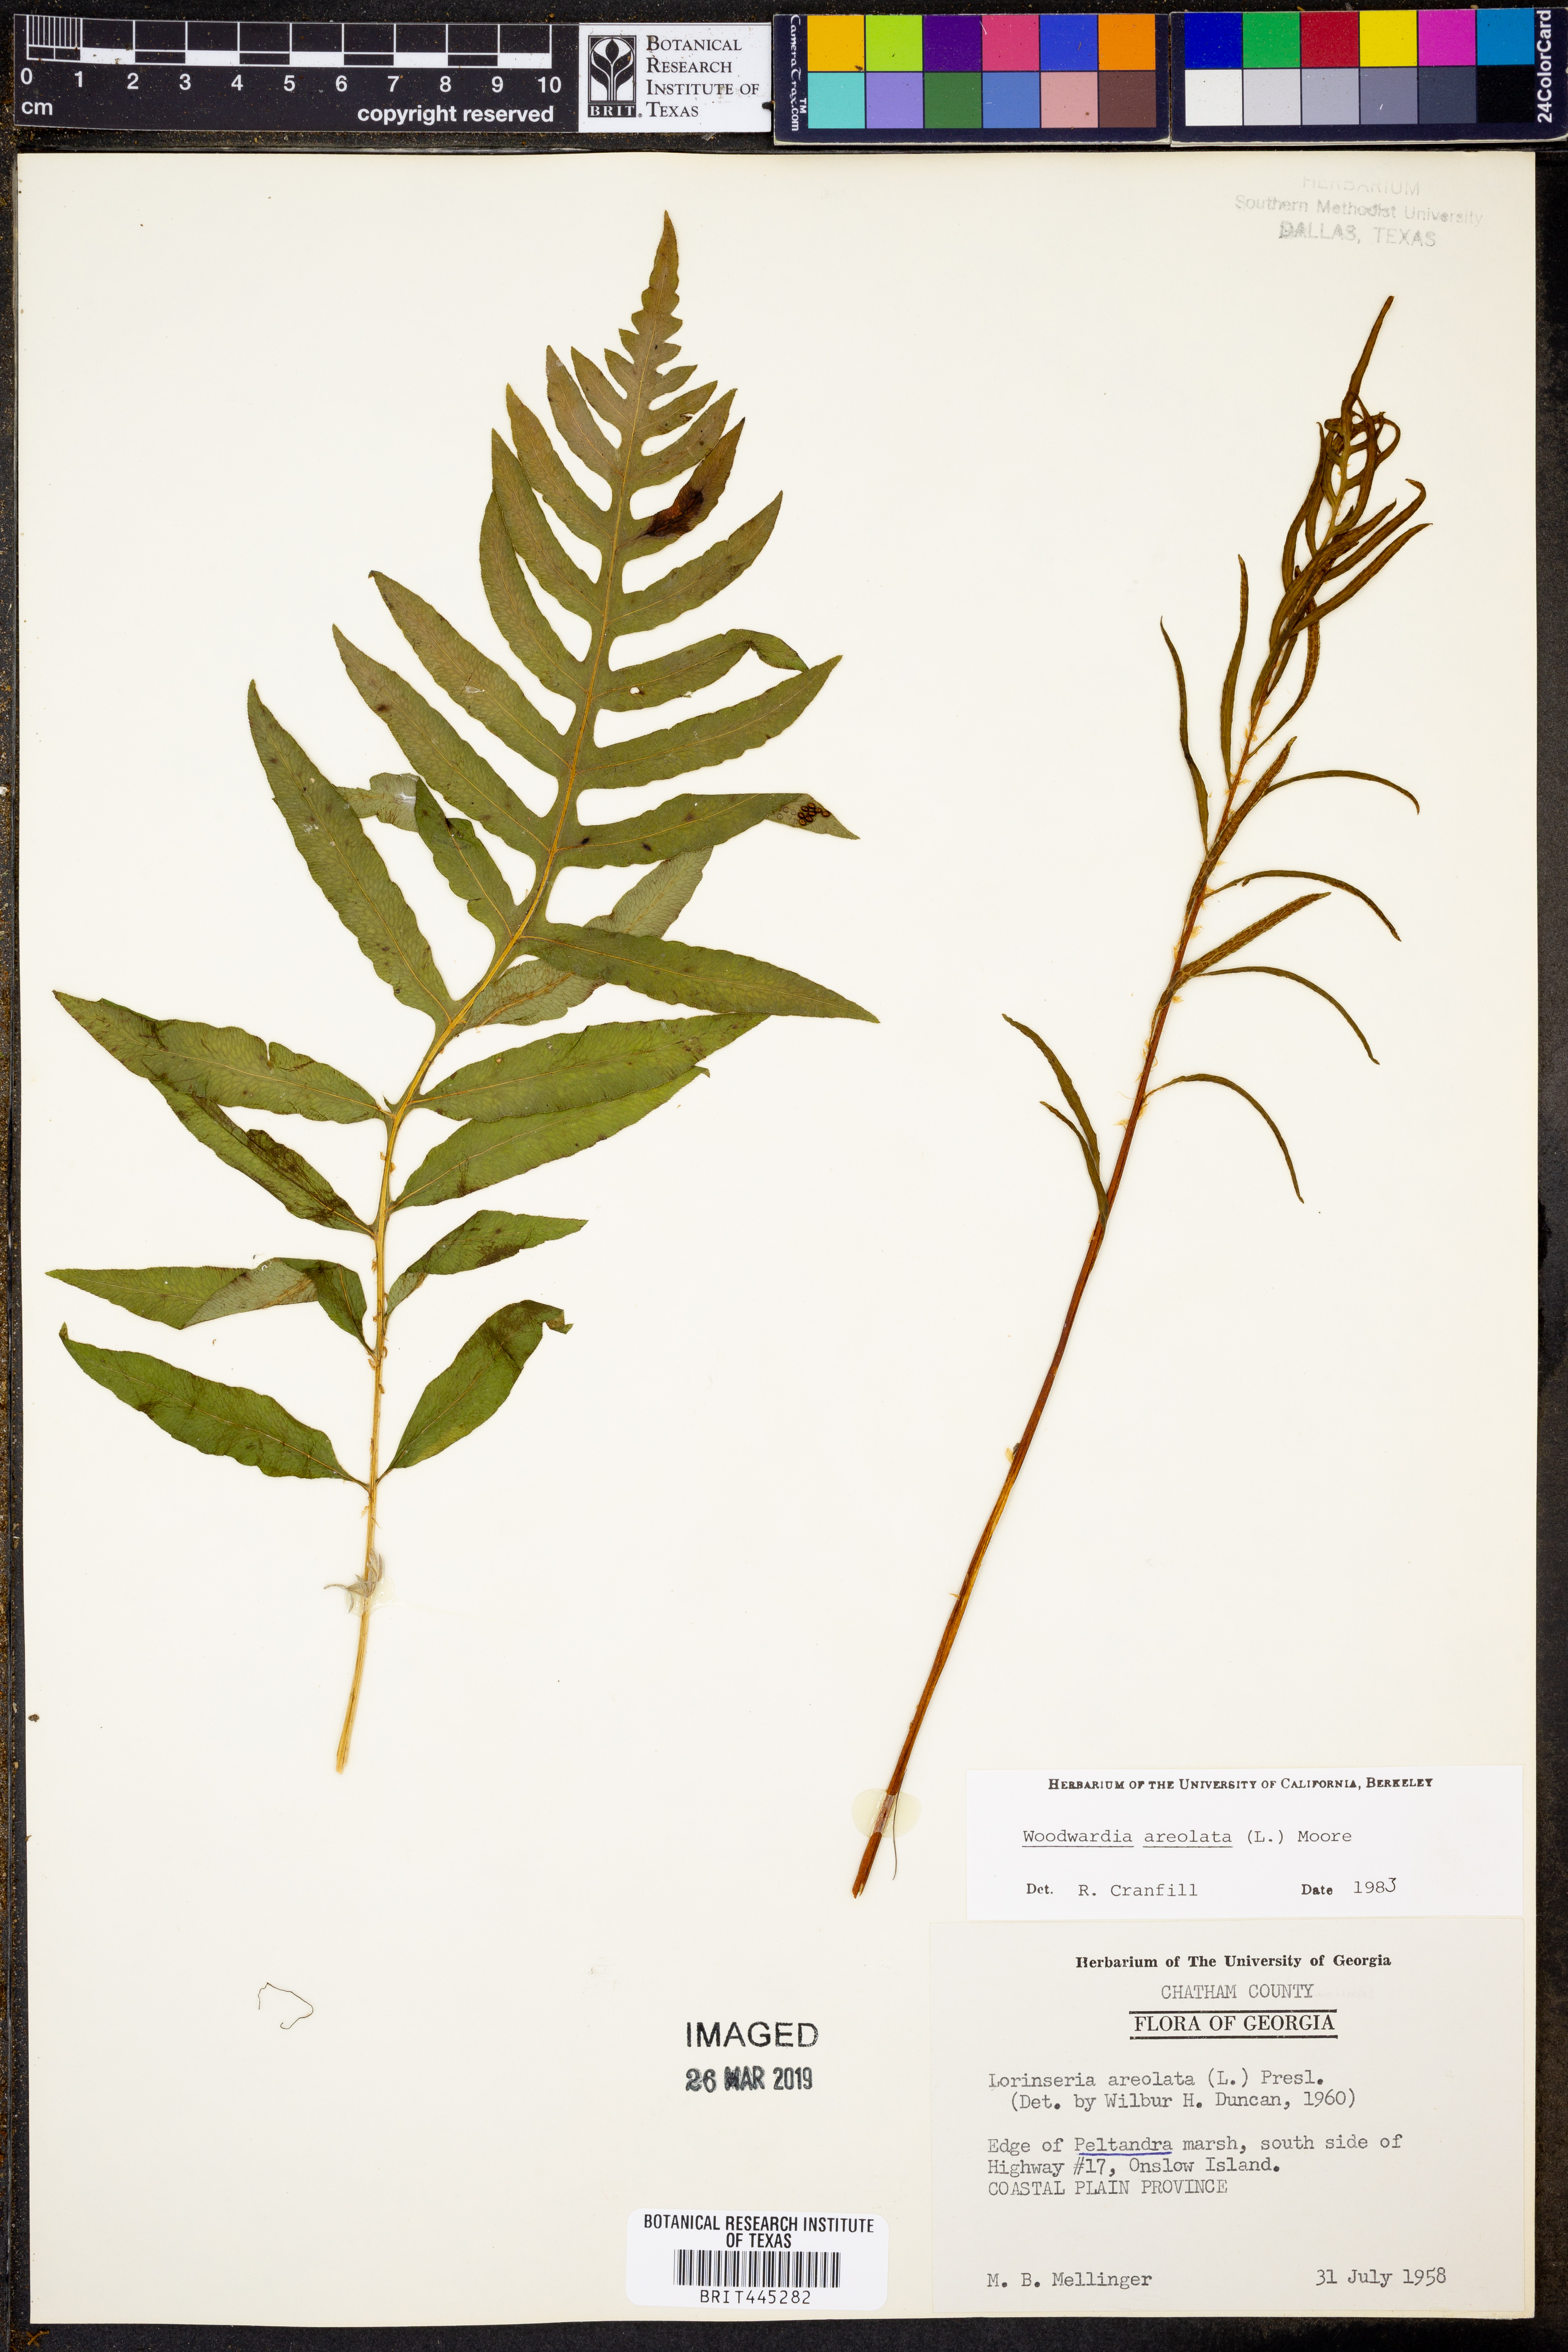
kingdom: Plantae
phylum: Tracheophyta
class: Polypodiopsida
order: Polypodiales
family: Blechnaceae
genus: Lorinseria
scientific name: Lorinseria areolata
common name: Dwarf chain fern
